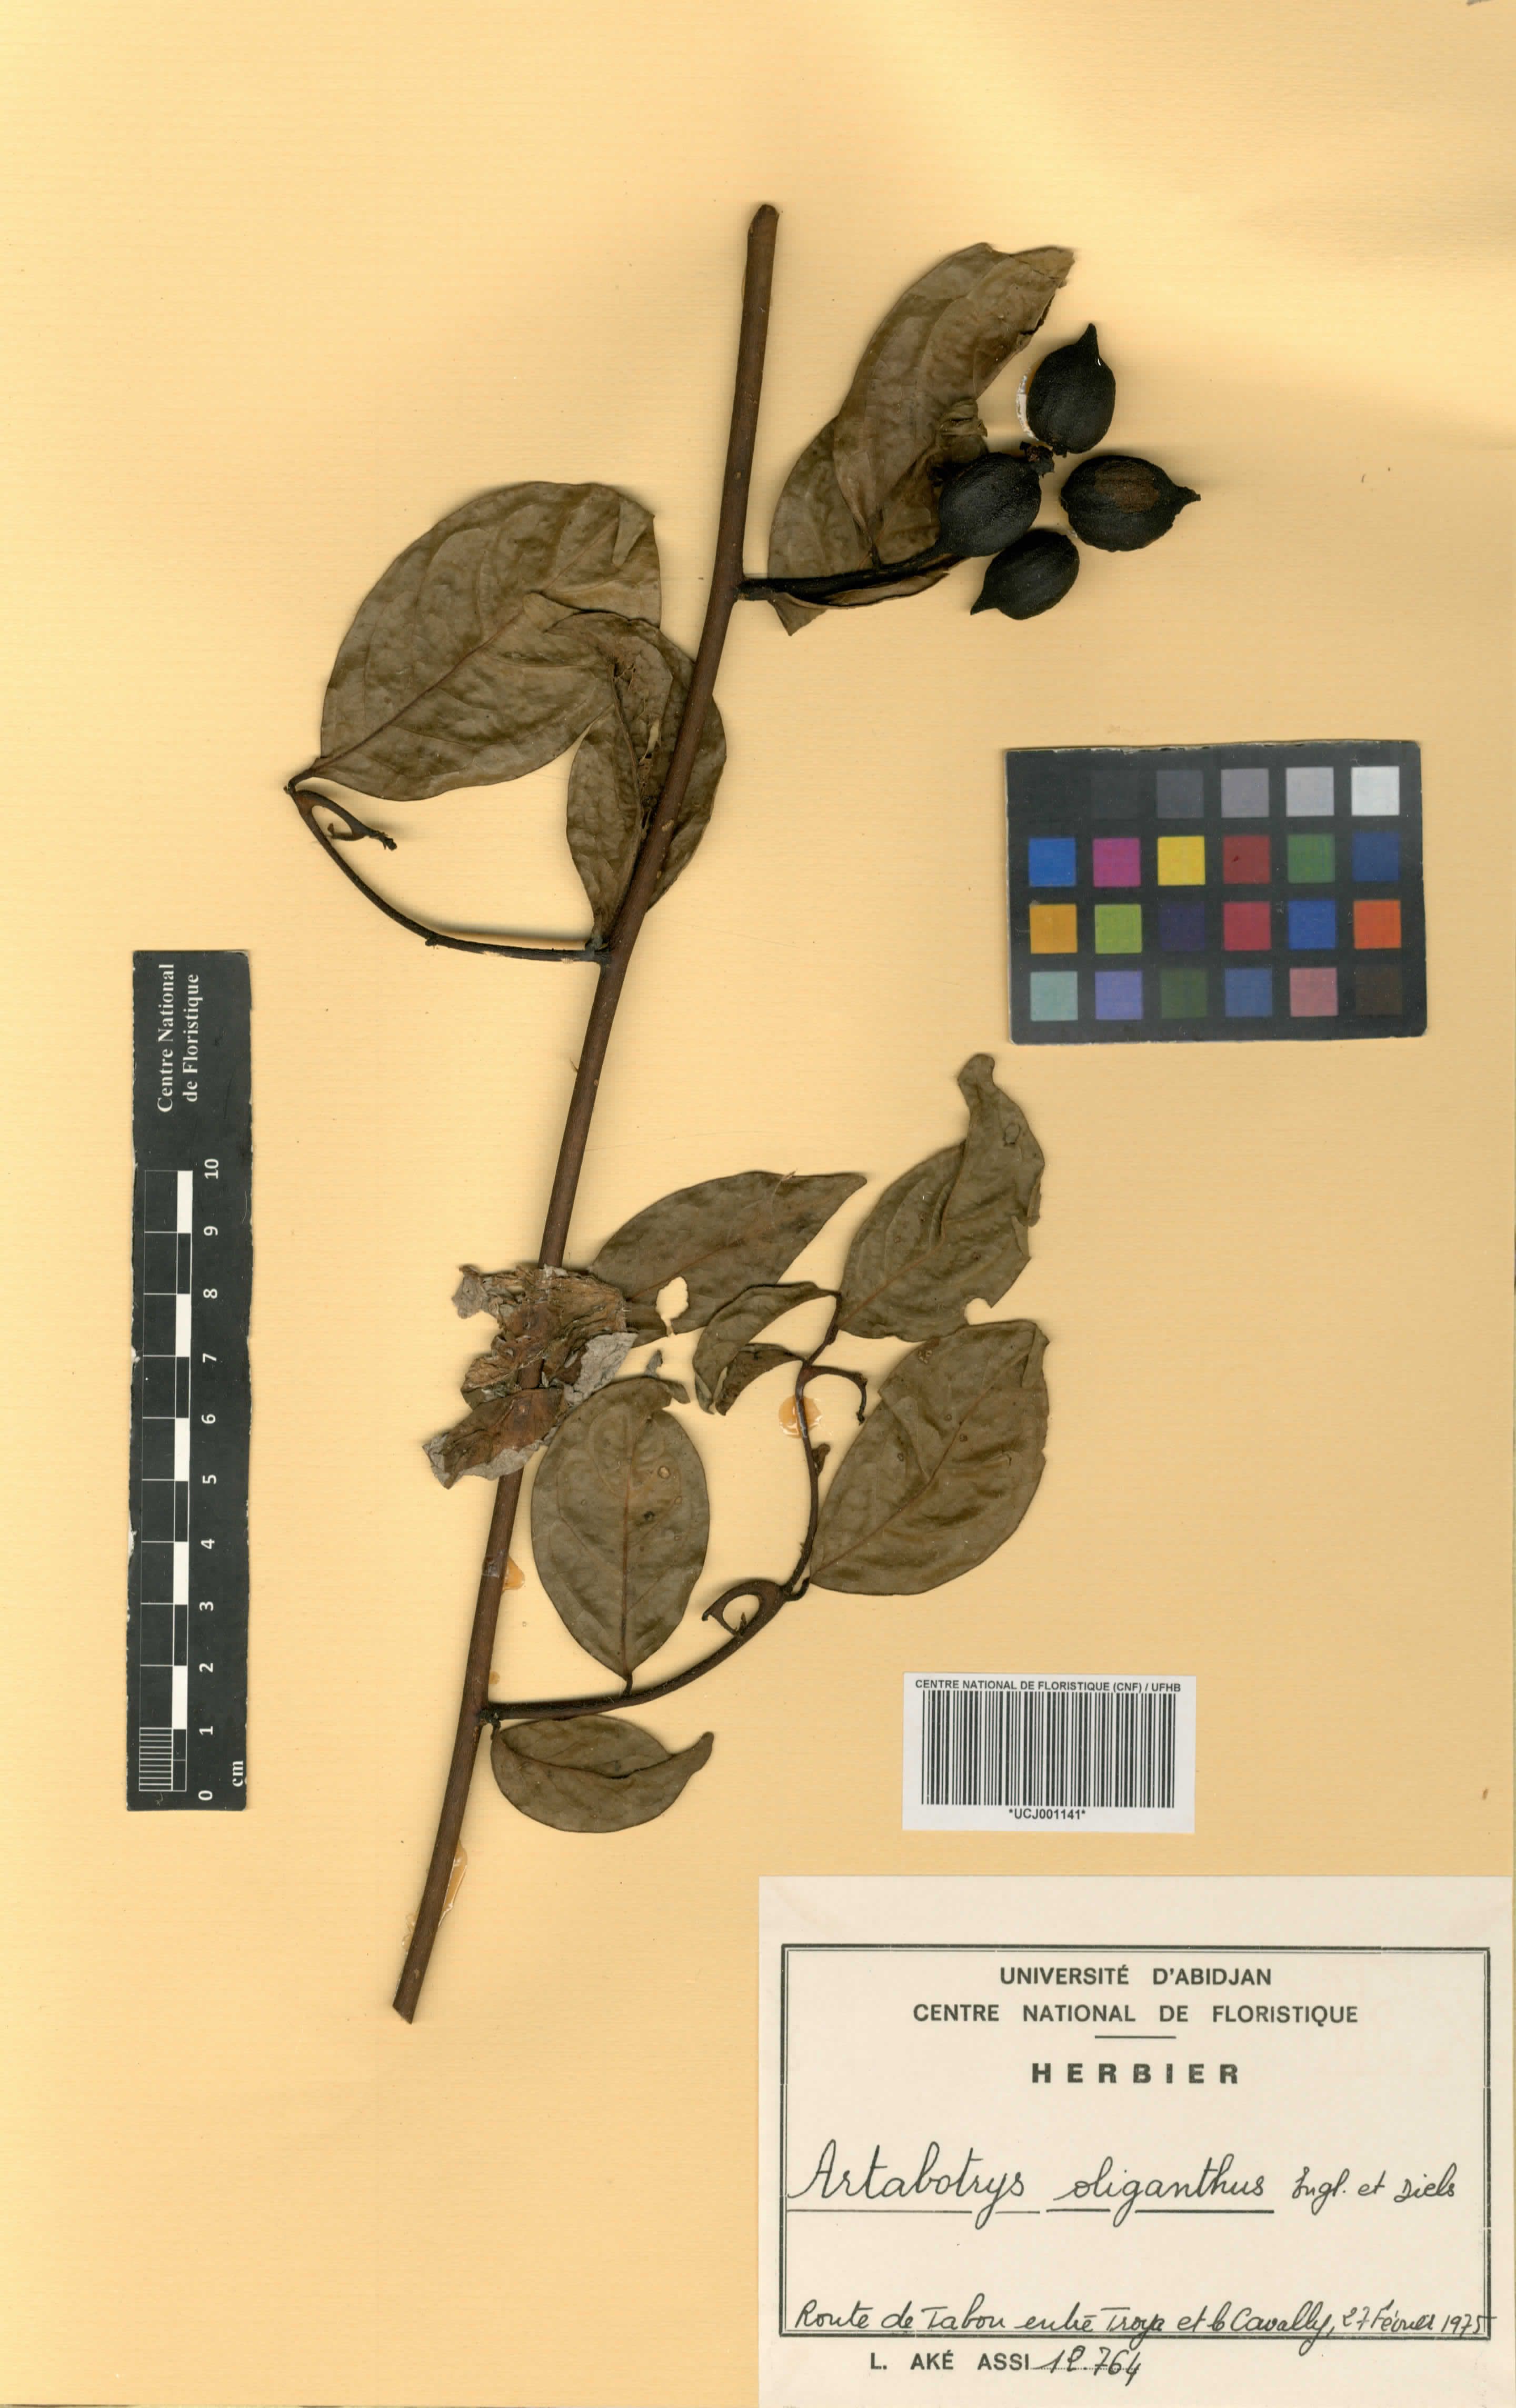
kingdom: Plantae
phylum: Tracheophyta
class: Magnoliopsida
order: Magnoliales
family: Annonaceae
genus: Artabotrys
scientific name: Artabotrys oliganthus
